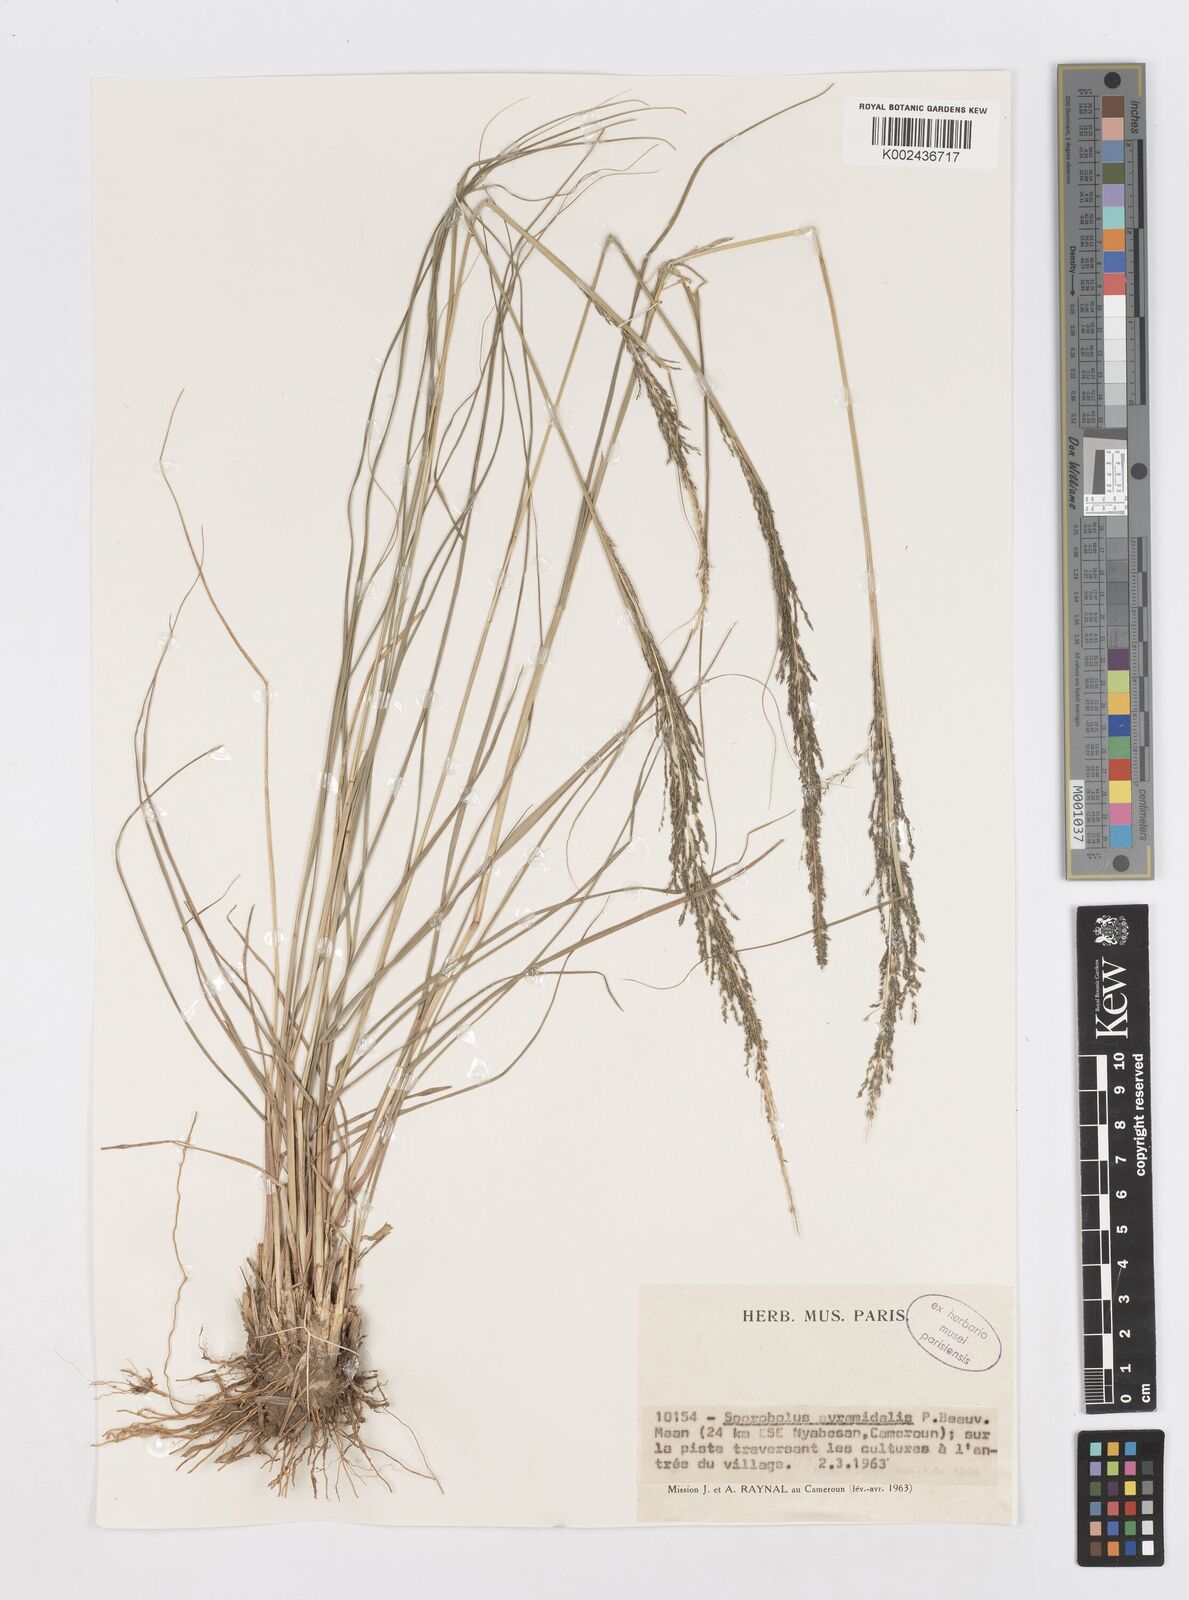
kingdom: Plantae
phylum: Tracheophyta
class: Liliopsida
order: Poales
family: Poaceae
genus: Sporobolus
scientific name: Sporobolus pyramidalis
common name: West indian dropseed
